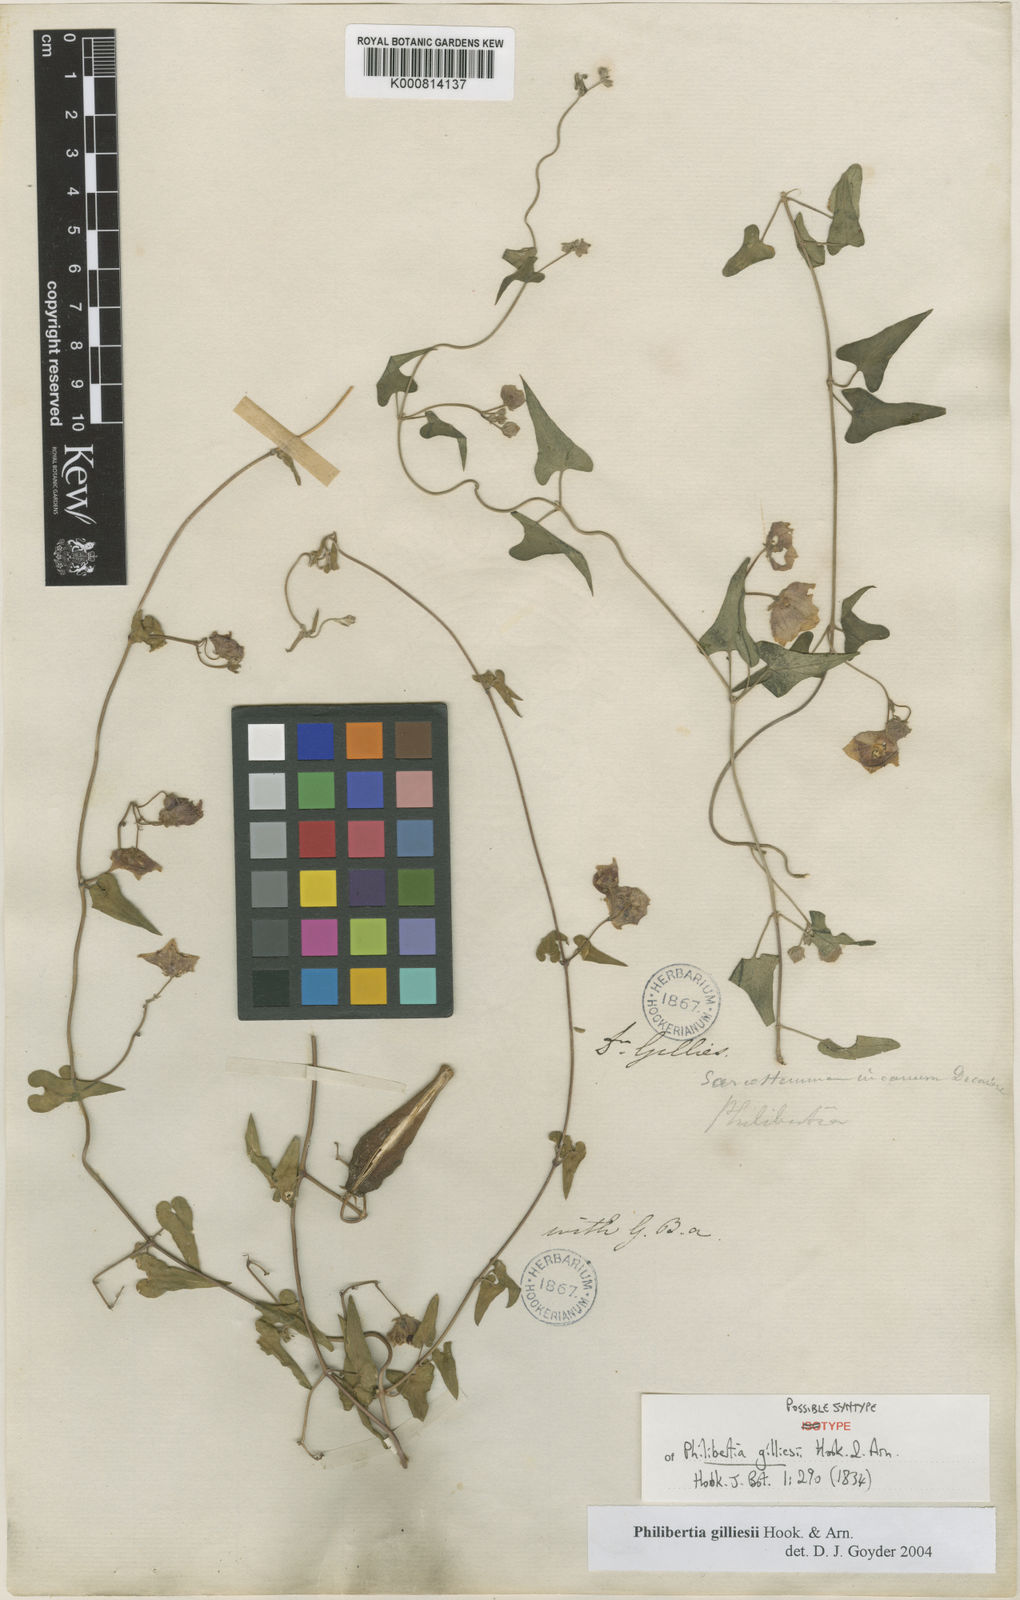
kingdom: Plantae
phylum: Tracheophyta
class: Magnoliopsida
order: Gentianales
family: Apocynaceae
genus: Philibertia
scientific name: Philibertia gilliesii
